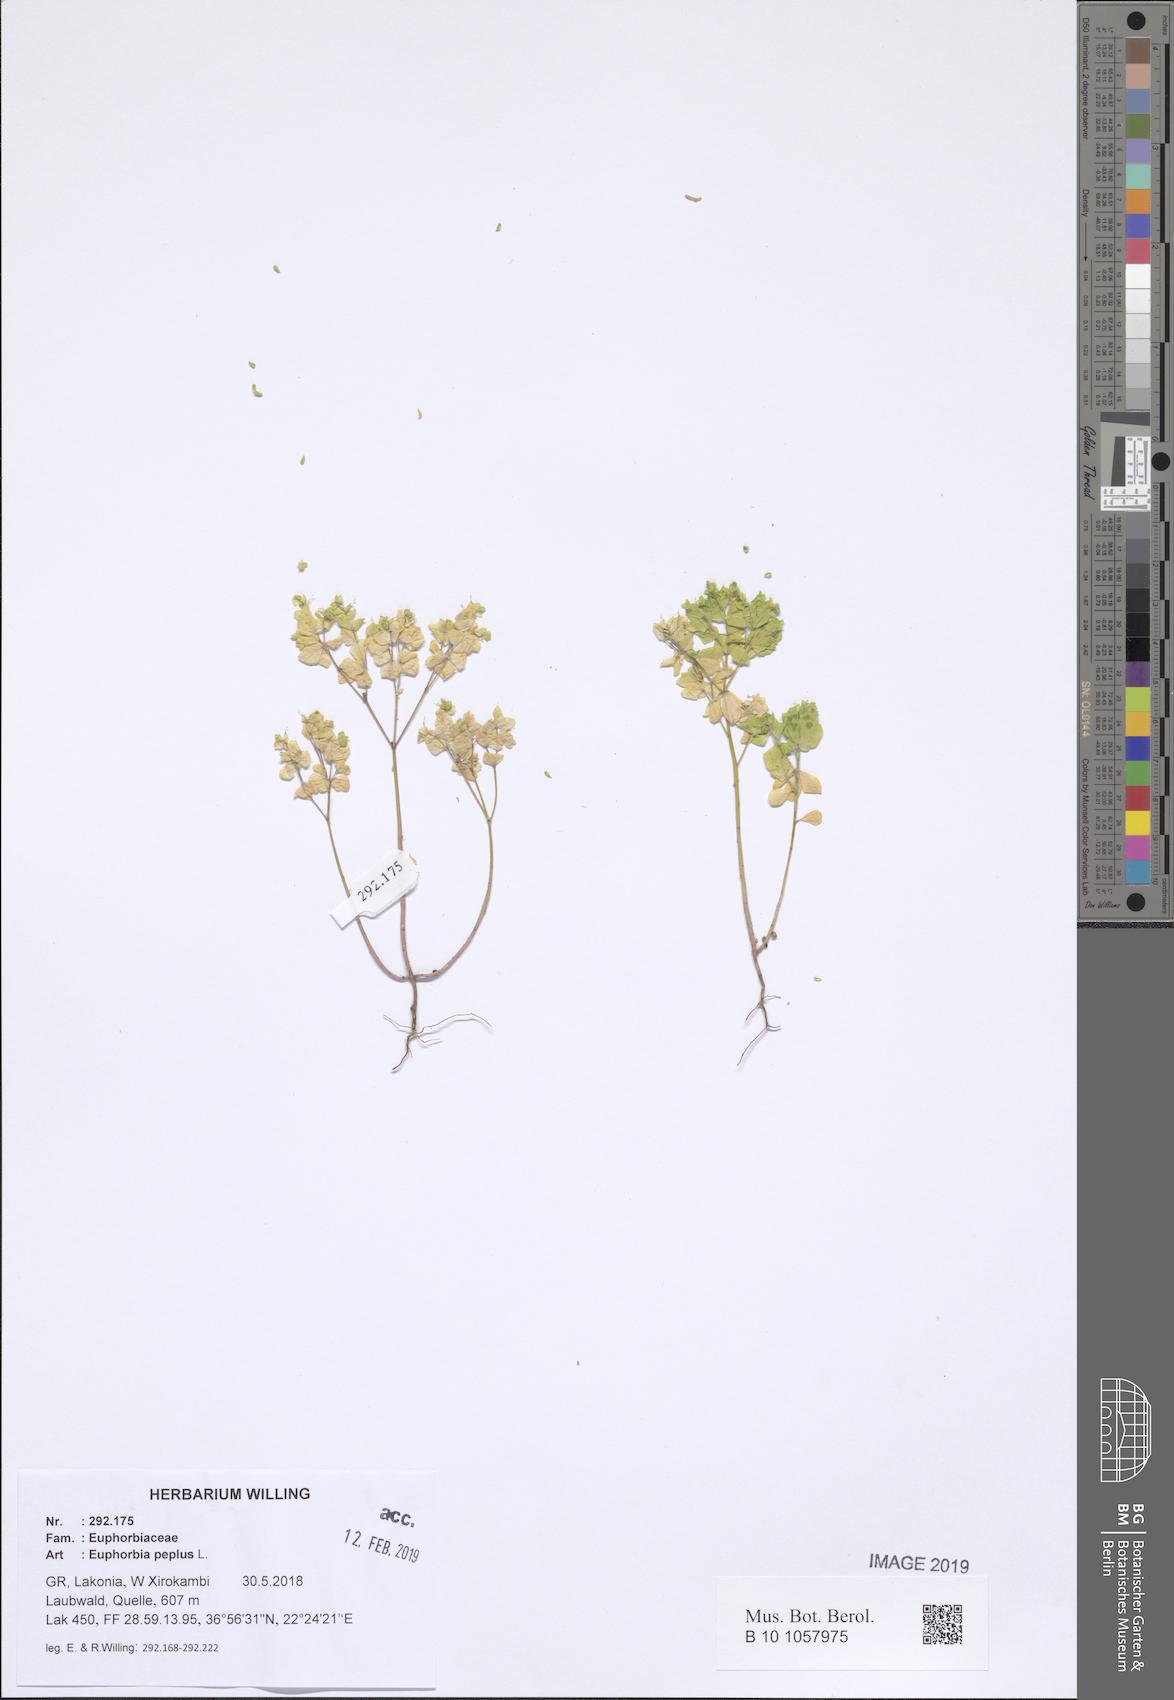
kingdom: Plantae
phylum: Tracheophyta
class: Magnoliopsida
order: Malpighiales
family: Euphorbiaceae
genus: Euphorbia
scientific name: Euphorbia peplus
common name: Petty spurge
